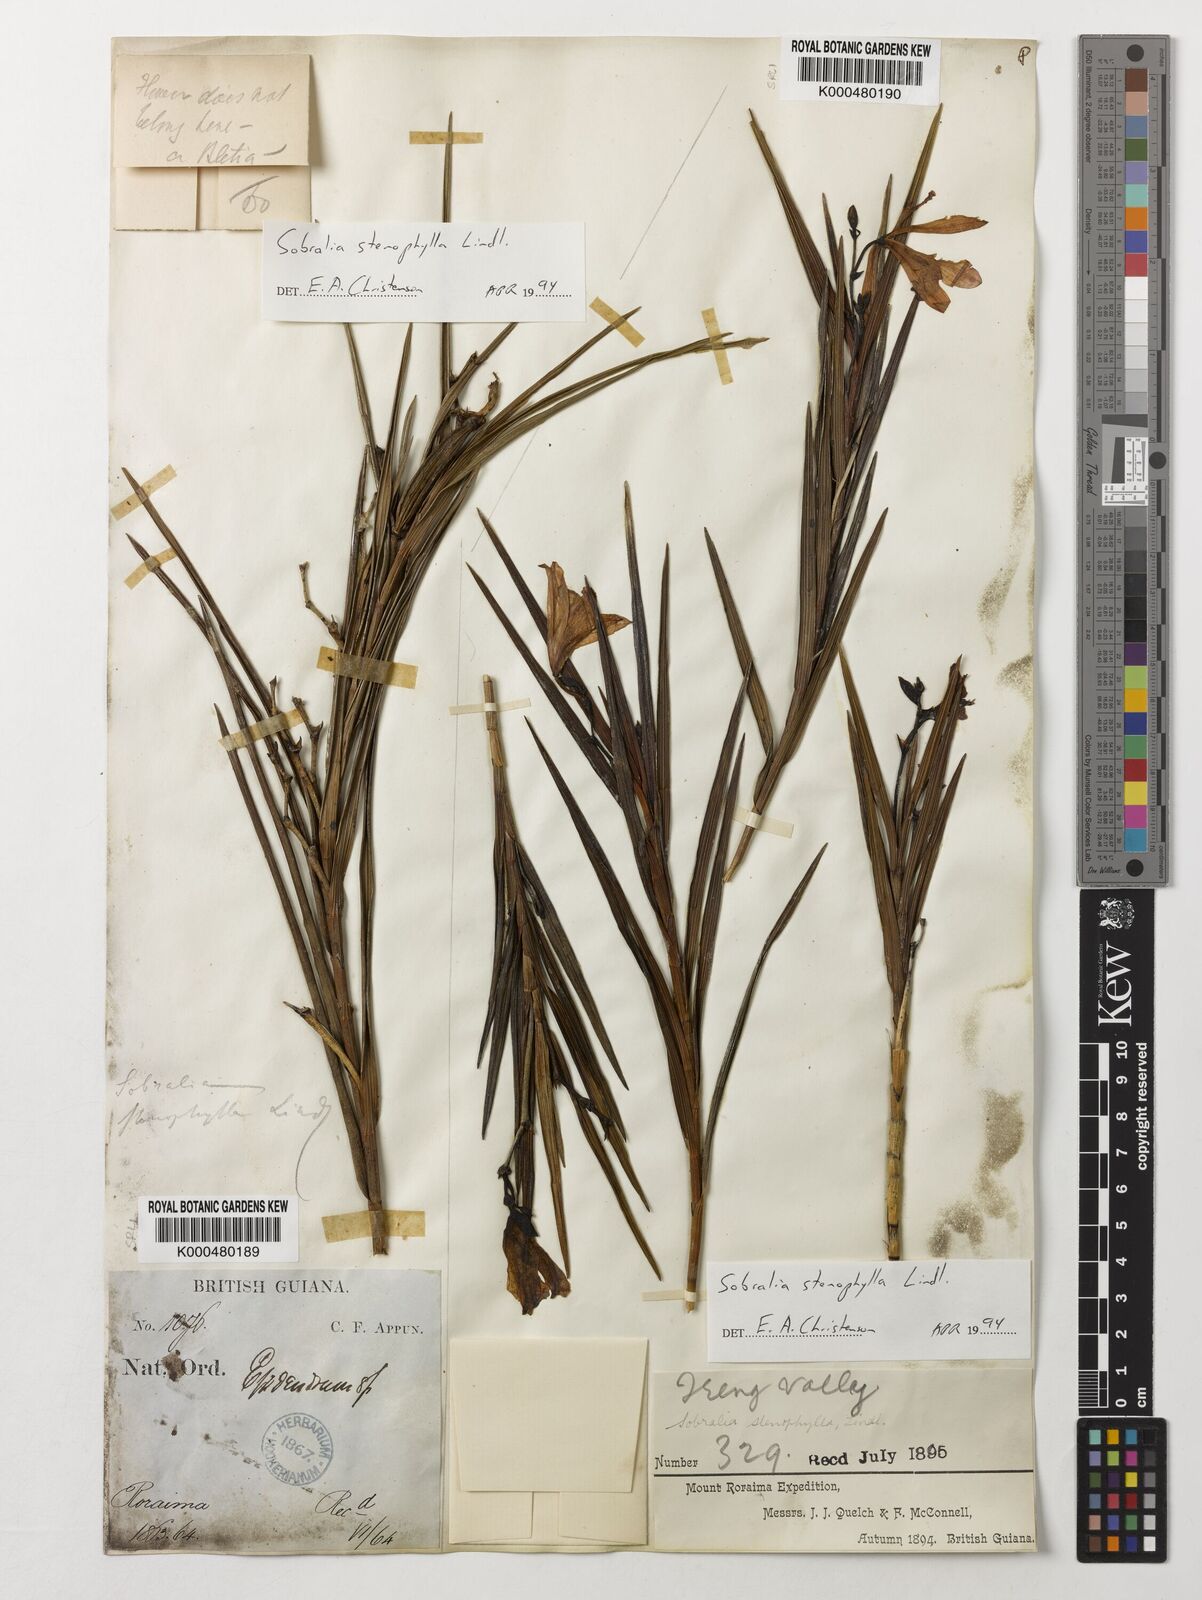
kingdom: Plantae
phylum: Tracheophyta
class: Liliopsida
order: Asparagales
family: Orchidaceae
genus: Sobralia
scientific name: Sobralia stenophylla
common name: Thin leafed sobralia
